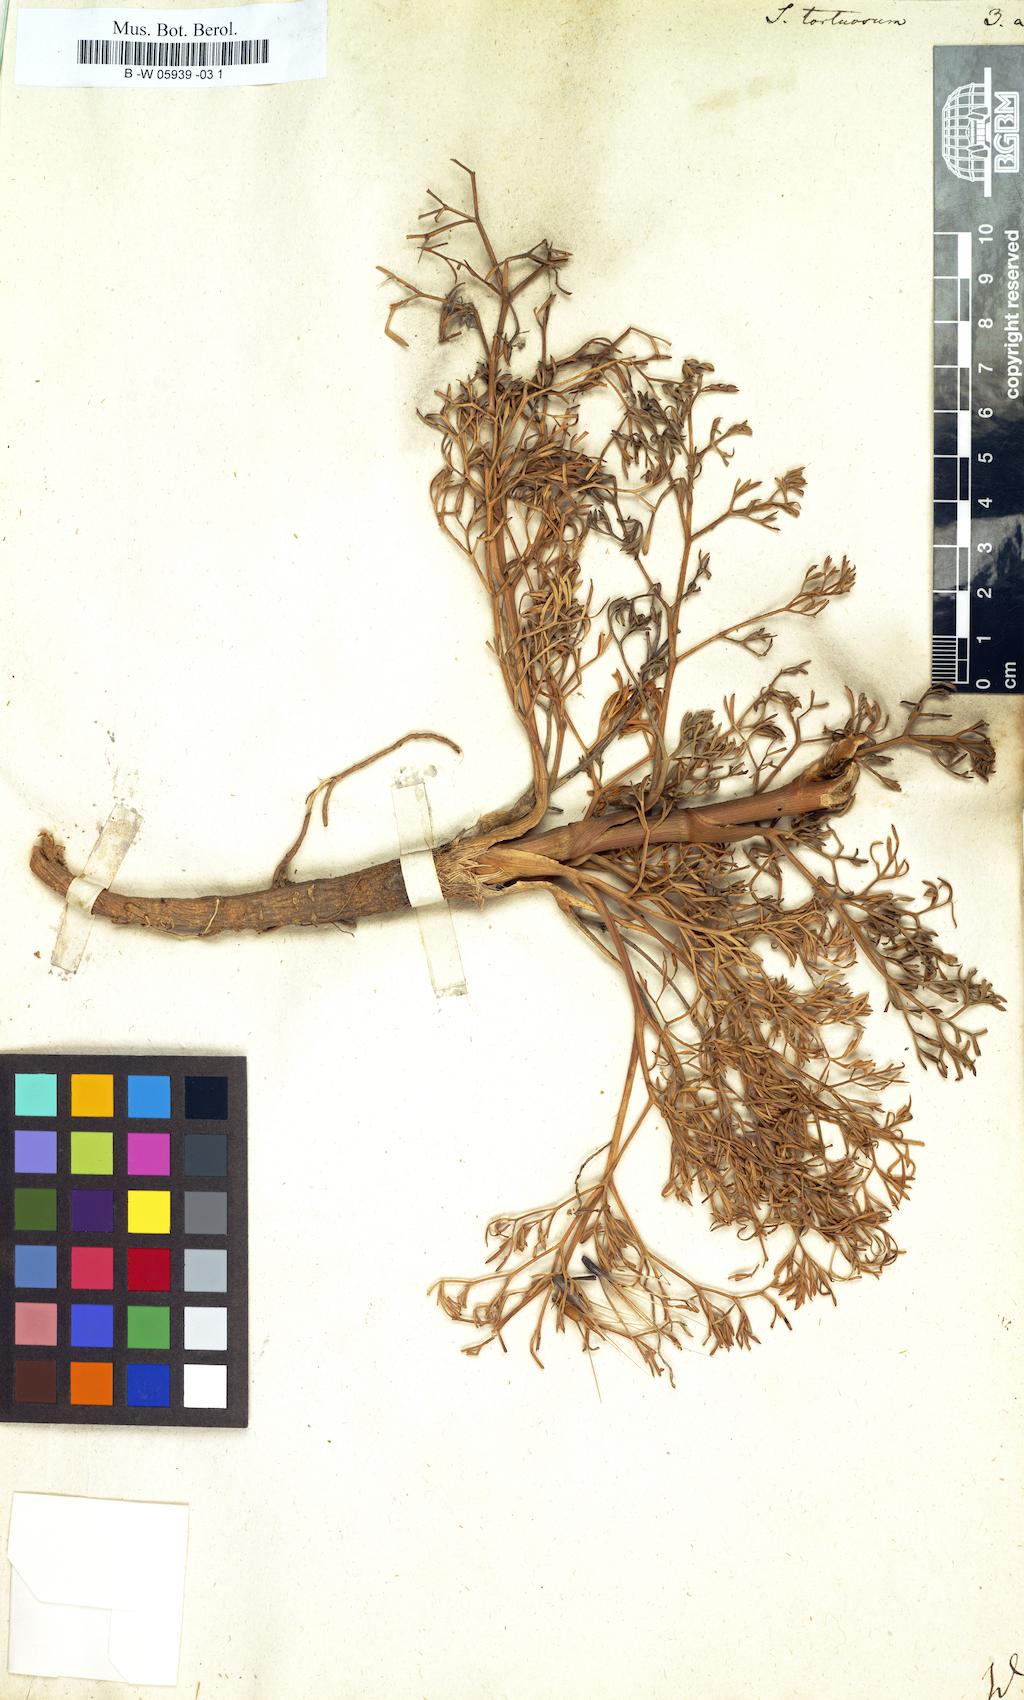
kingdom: Plantae
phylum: Tracheophyta
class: Magnoliopsida
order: Apiales
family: Apiaceae
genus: Seseli
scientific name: Seseli tortuosum
